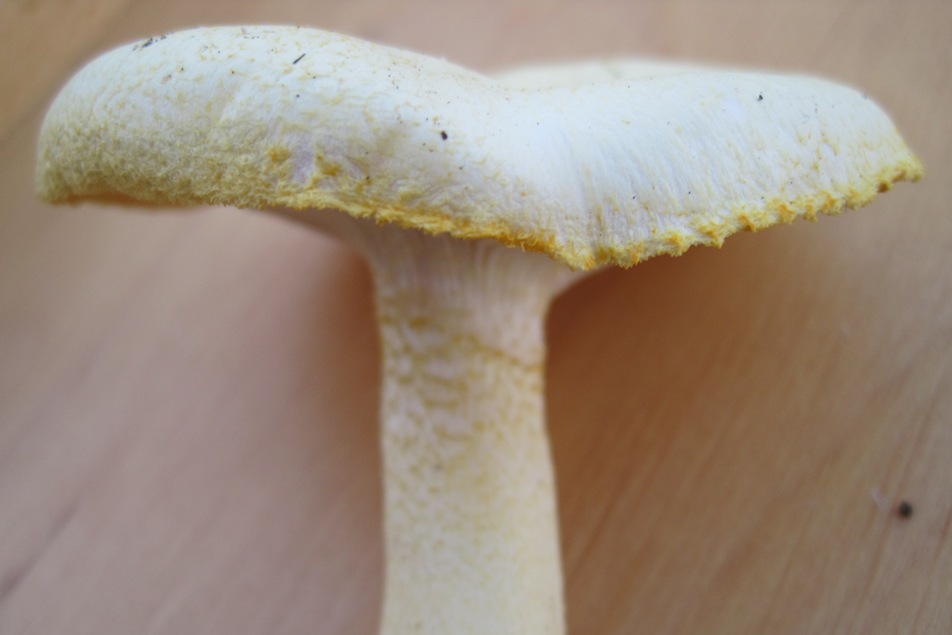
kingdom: Fungi
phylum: Basidiomycota
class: Agaricomycetes
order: Agaricales
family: Hygrophoraceae
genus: Hygrophorus
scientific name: Hygrophorus chrysodon
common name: gulfnugget sneglehat
